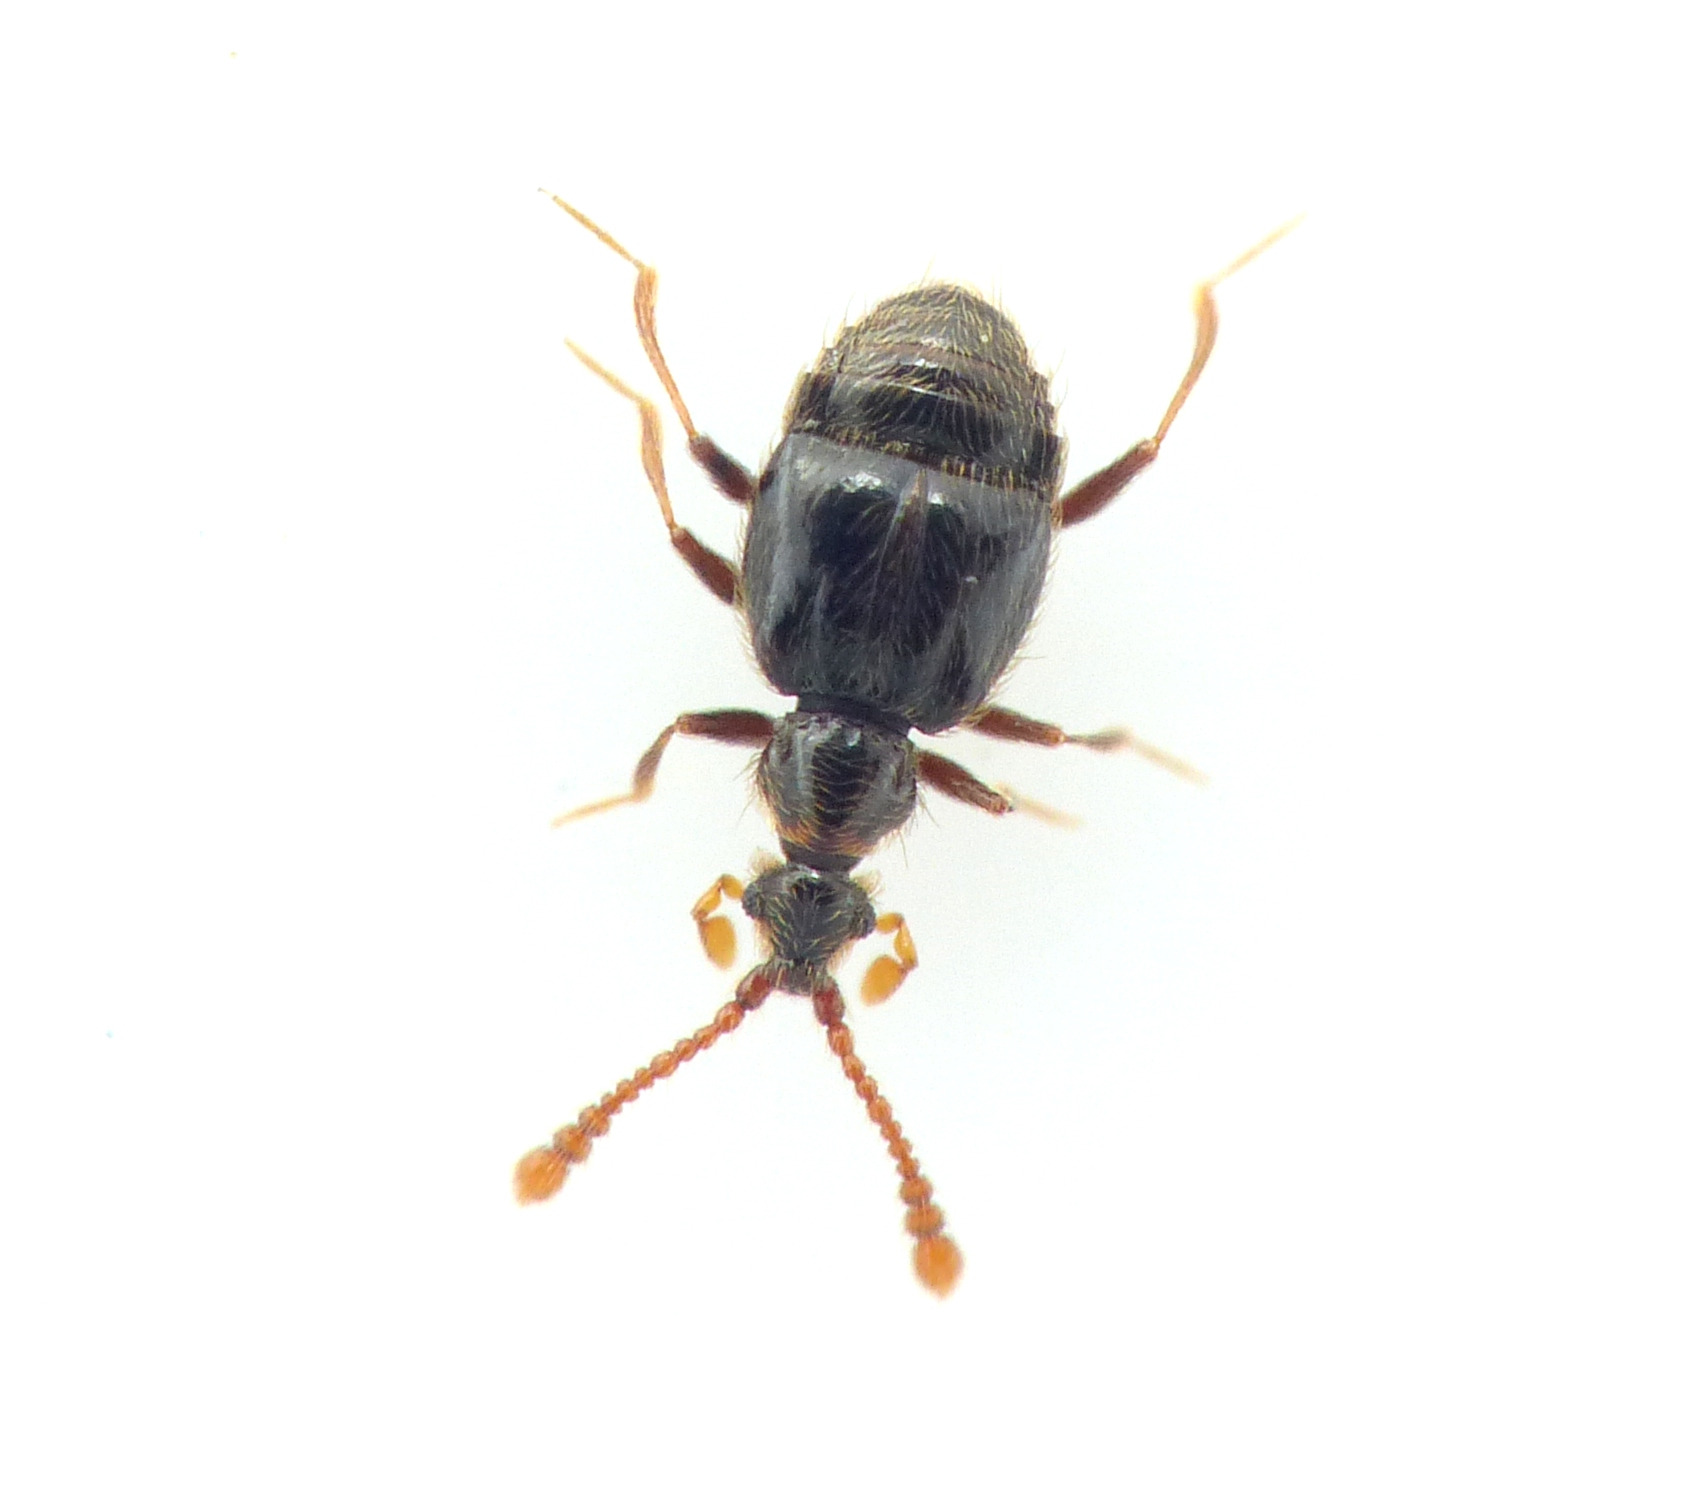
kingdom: Animalia
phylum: Arthropoda
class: Insecta
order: Coleoptera
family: Staphylinidae
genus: Tychus
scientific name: Tychus niger
